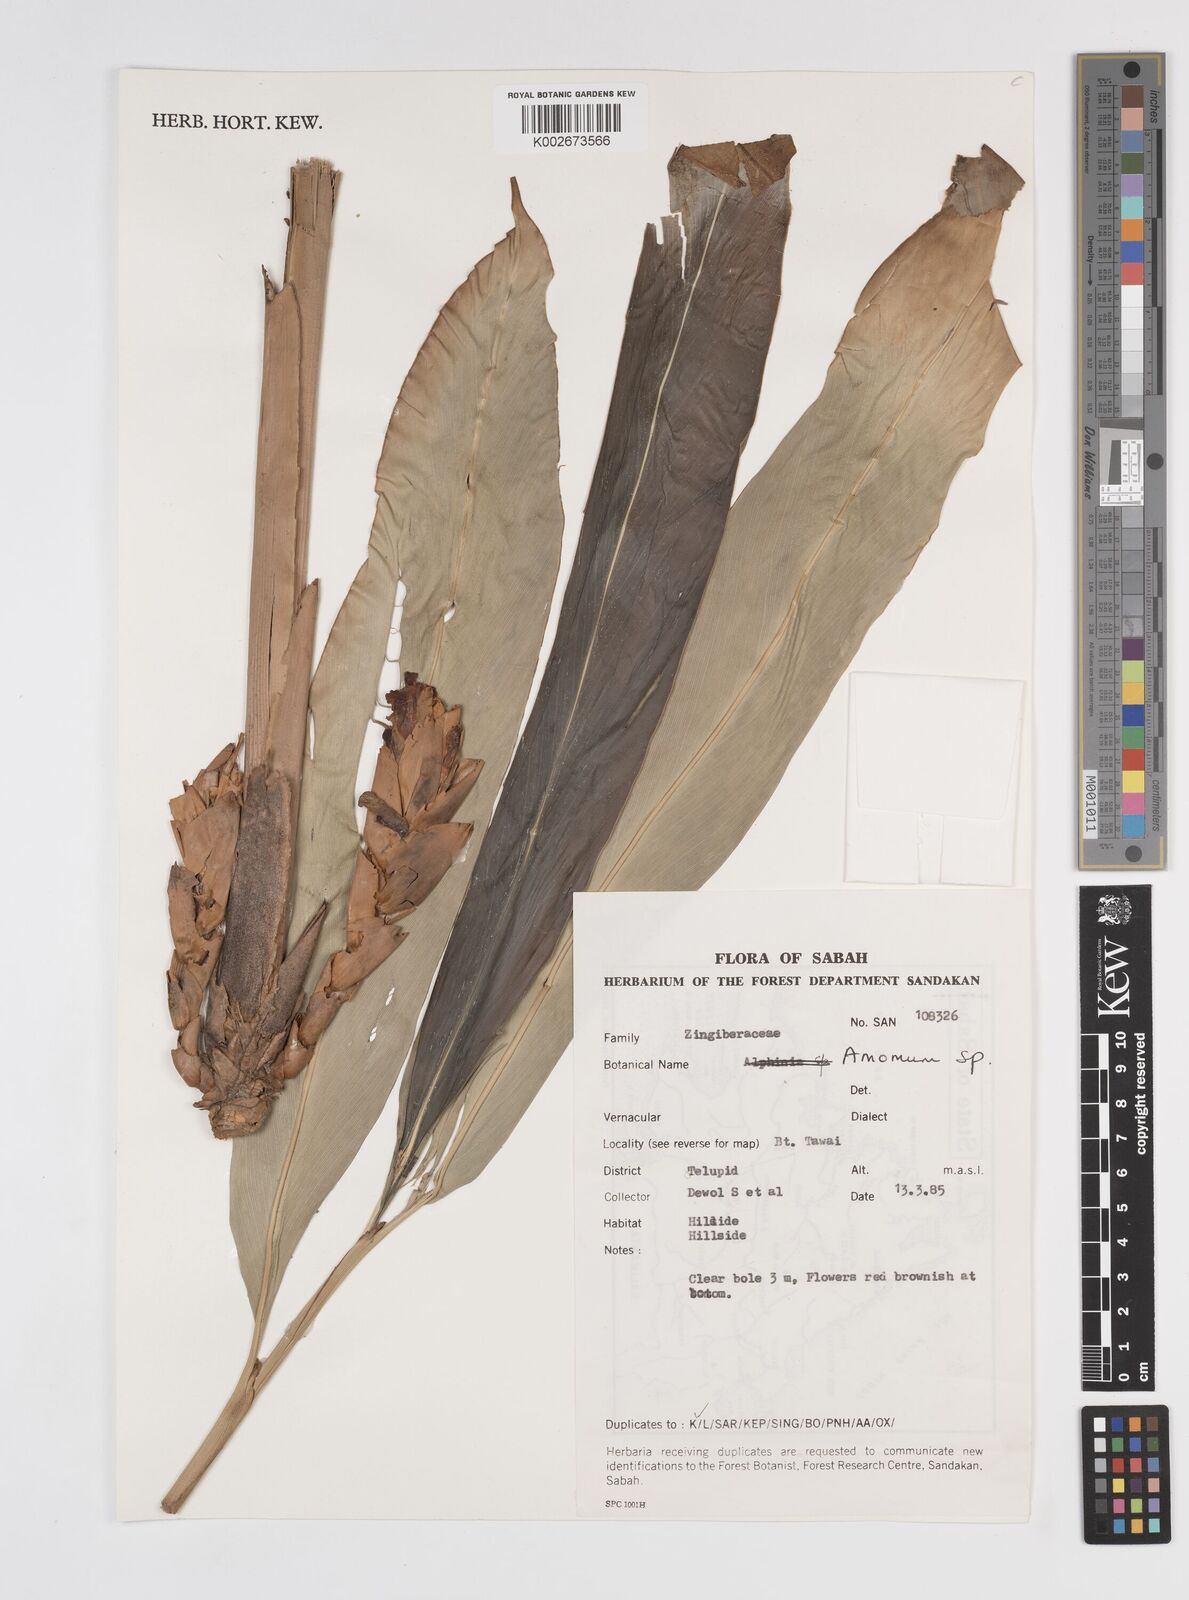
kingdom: Plantae
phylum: Tracheophyta
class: Liliopsida
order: Zingiberales
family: Zingiberaceae
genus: Amomum
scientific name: Amomum
